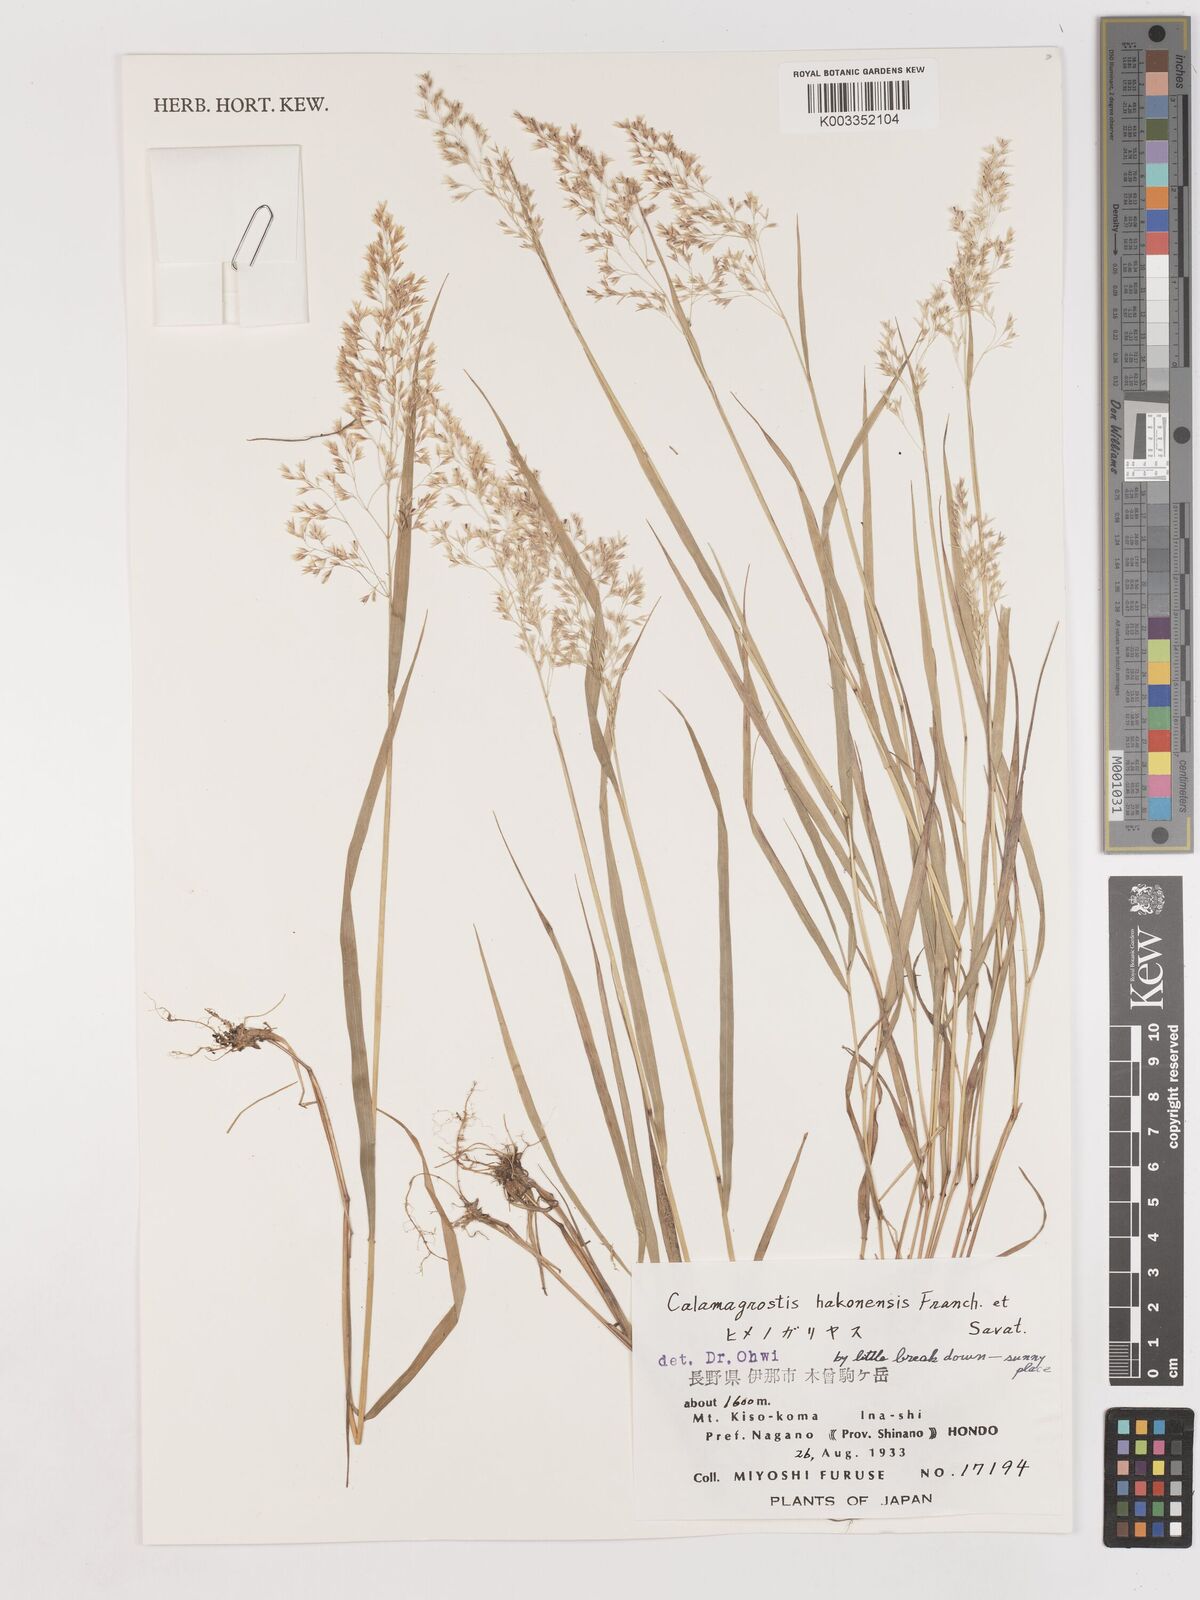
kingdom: Plantae
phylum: Tracheophyta
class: Liliopsida
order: Poales
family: Poaceae
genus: Calamagrostis
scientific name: Calamagrostis hakonensis
